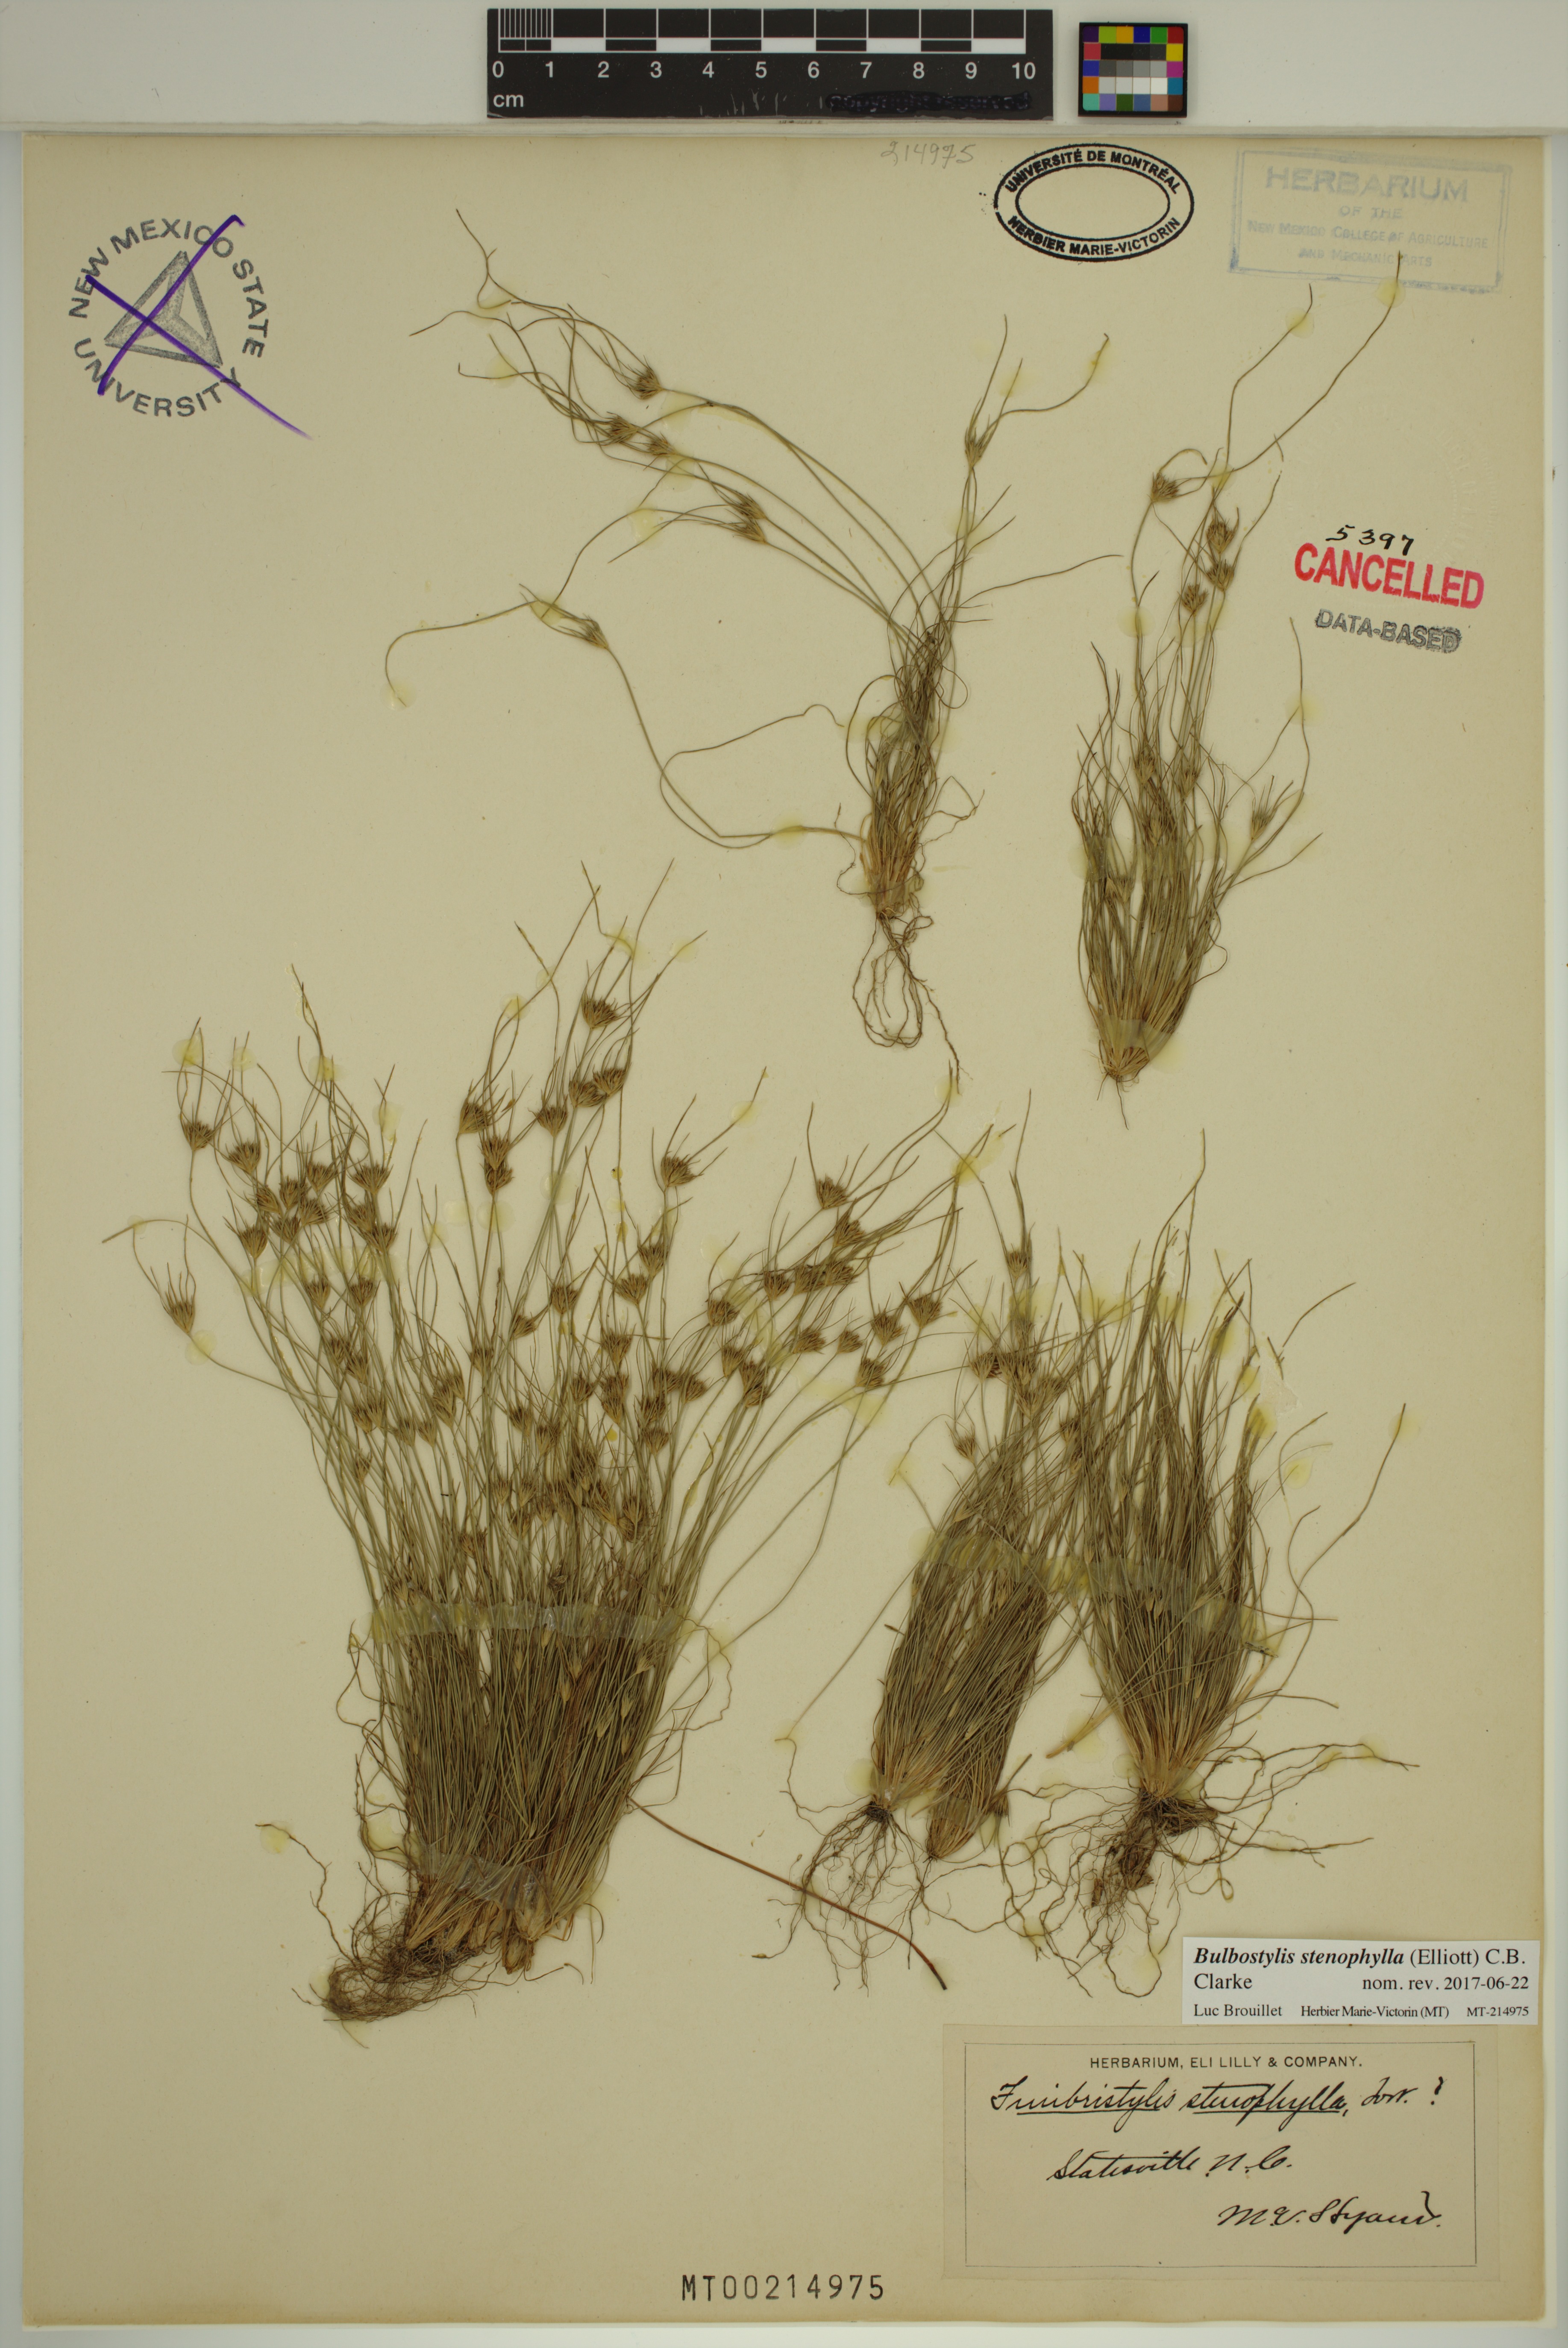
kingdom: Plantae
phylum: Tracheophyta
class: Liliopsida
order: Poales
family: Cyperaceae
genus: Bulbostylis
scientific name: Bulbostylis stenophylla
